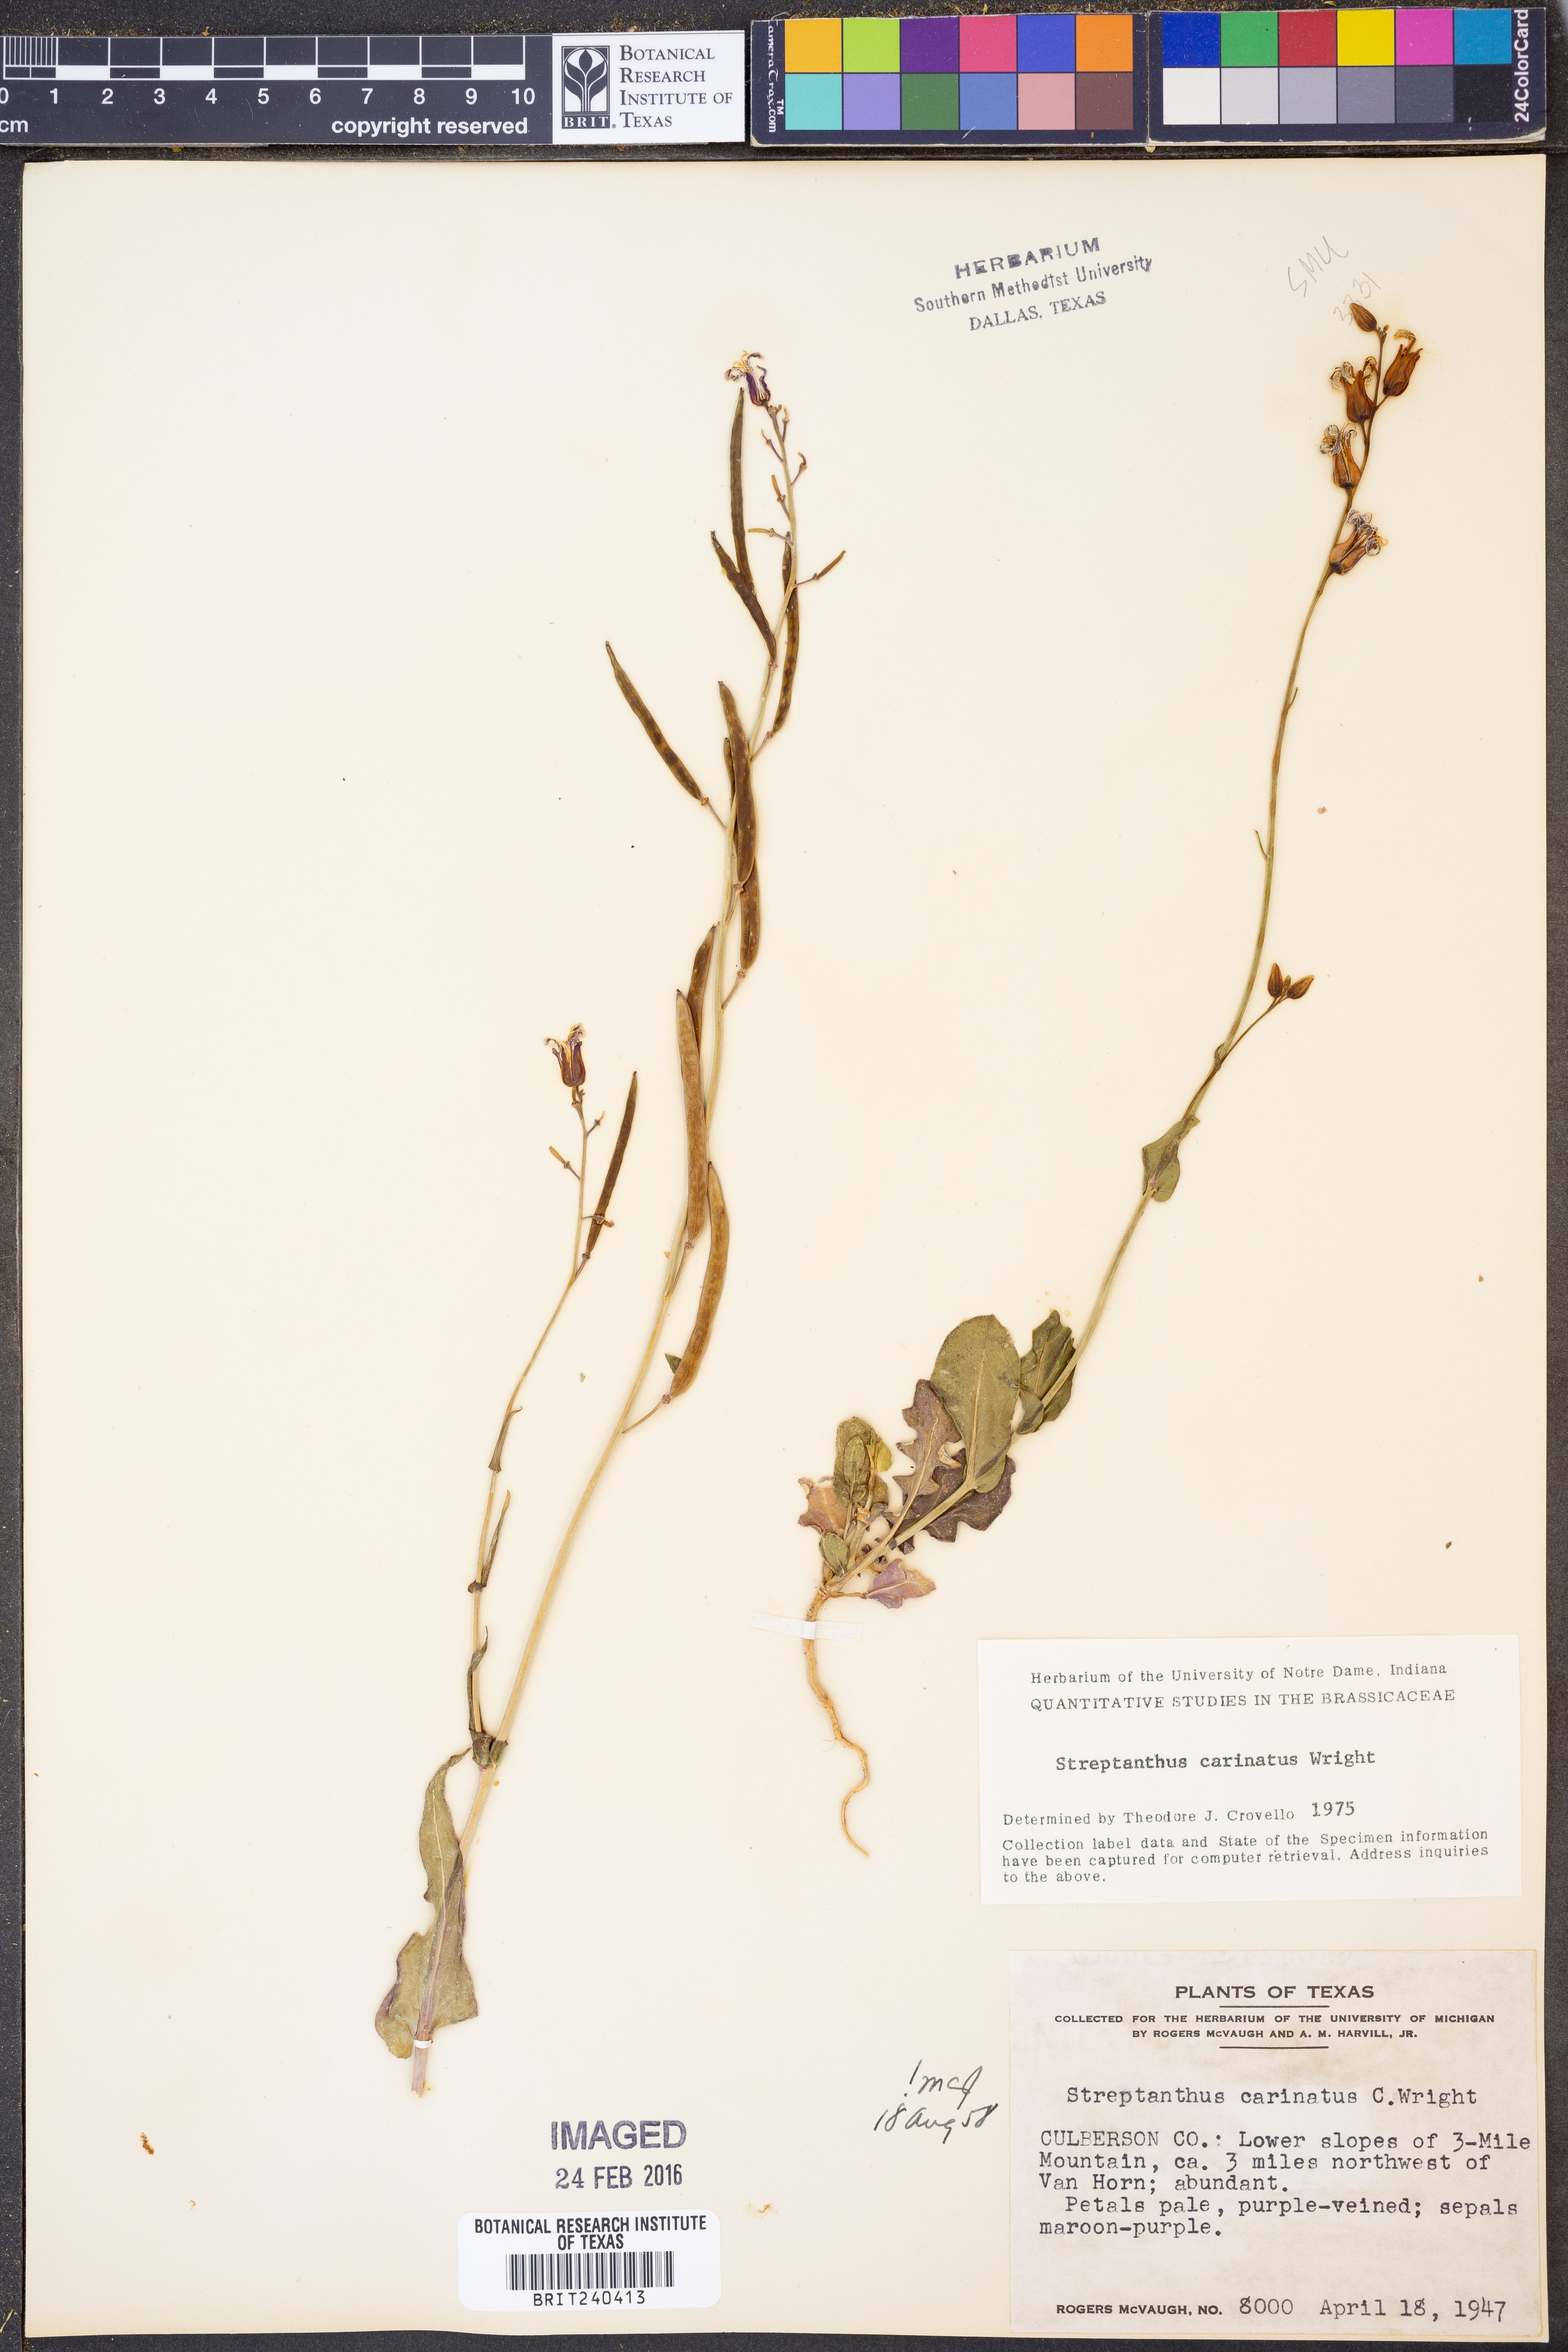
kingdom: Plantae
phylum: Tracheophyta
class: Magnoliopsida
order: Brassicales
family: Brassicaceae
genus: Streptanthus
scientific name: Streptanthus carinatus
